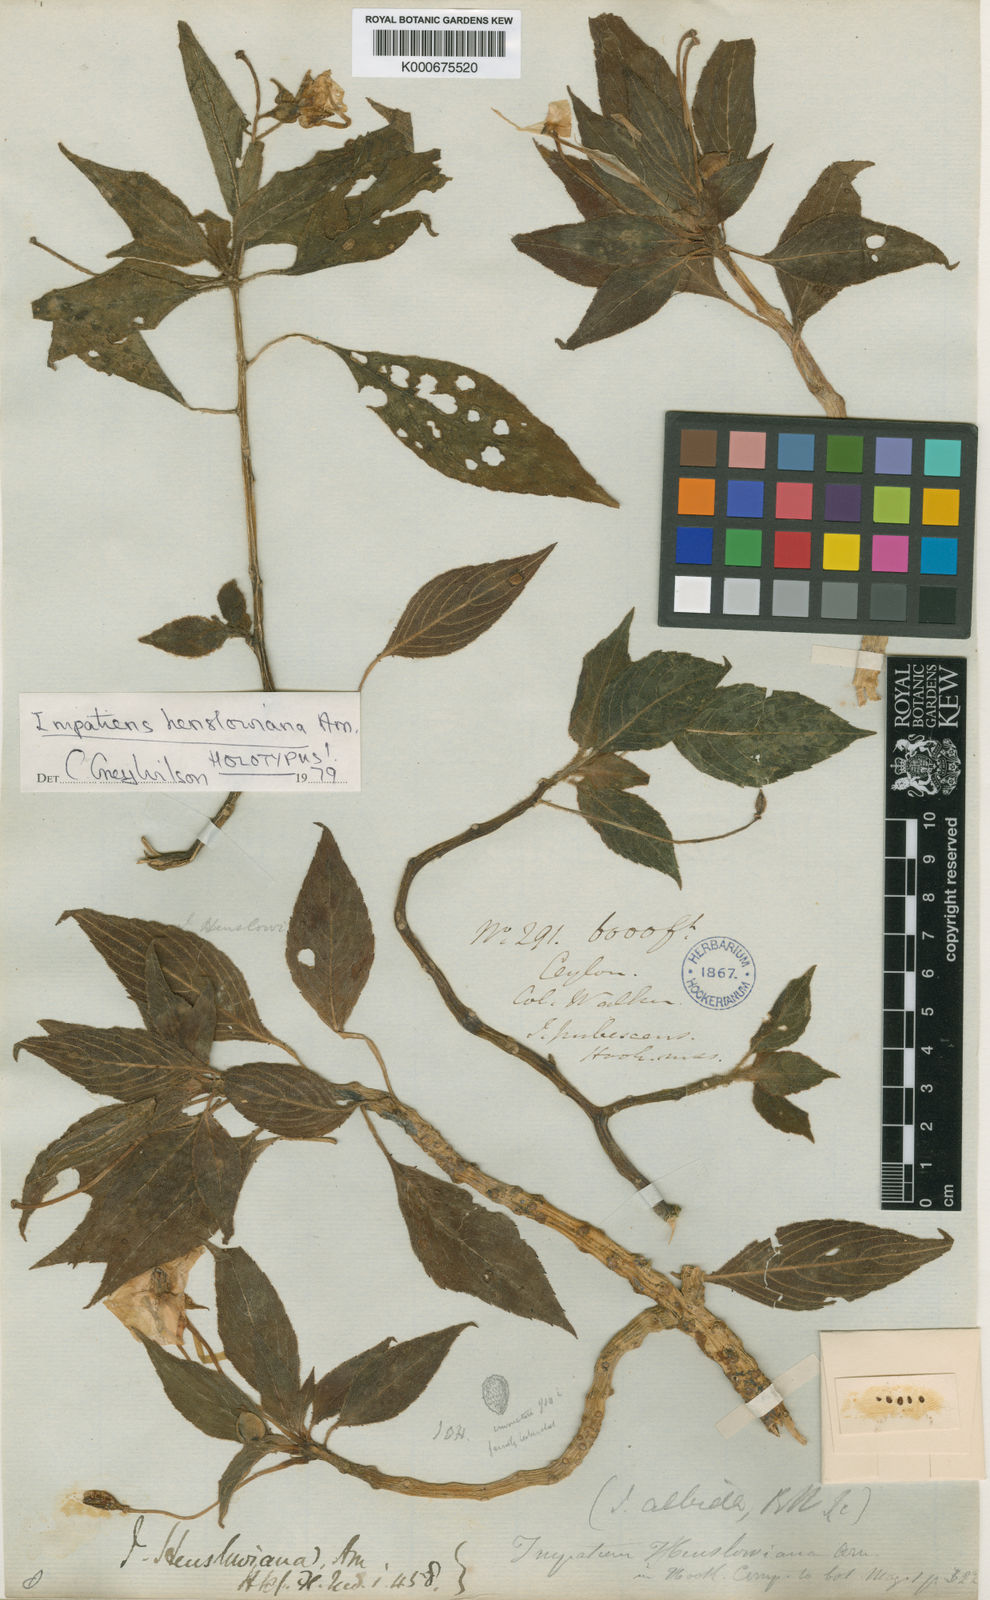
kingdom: Plantae
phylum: Tracheophyta
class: Magnoliopsida
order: Ericales
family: Balsaminaceae
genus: Impatiens
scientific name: Impatiens henslowiana
